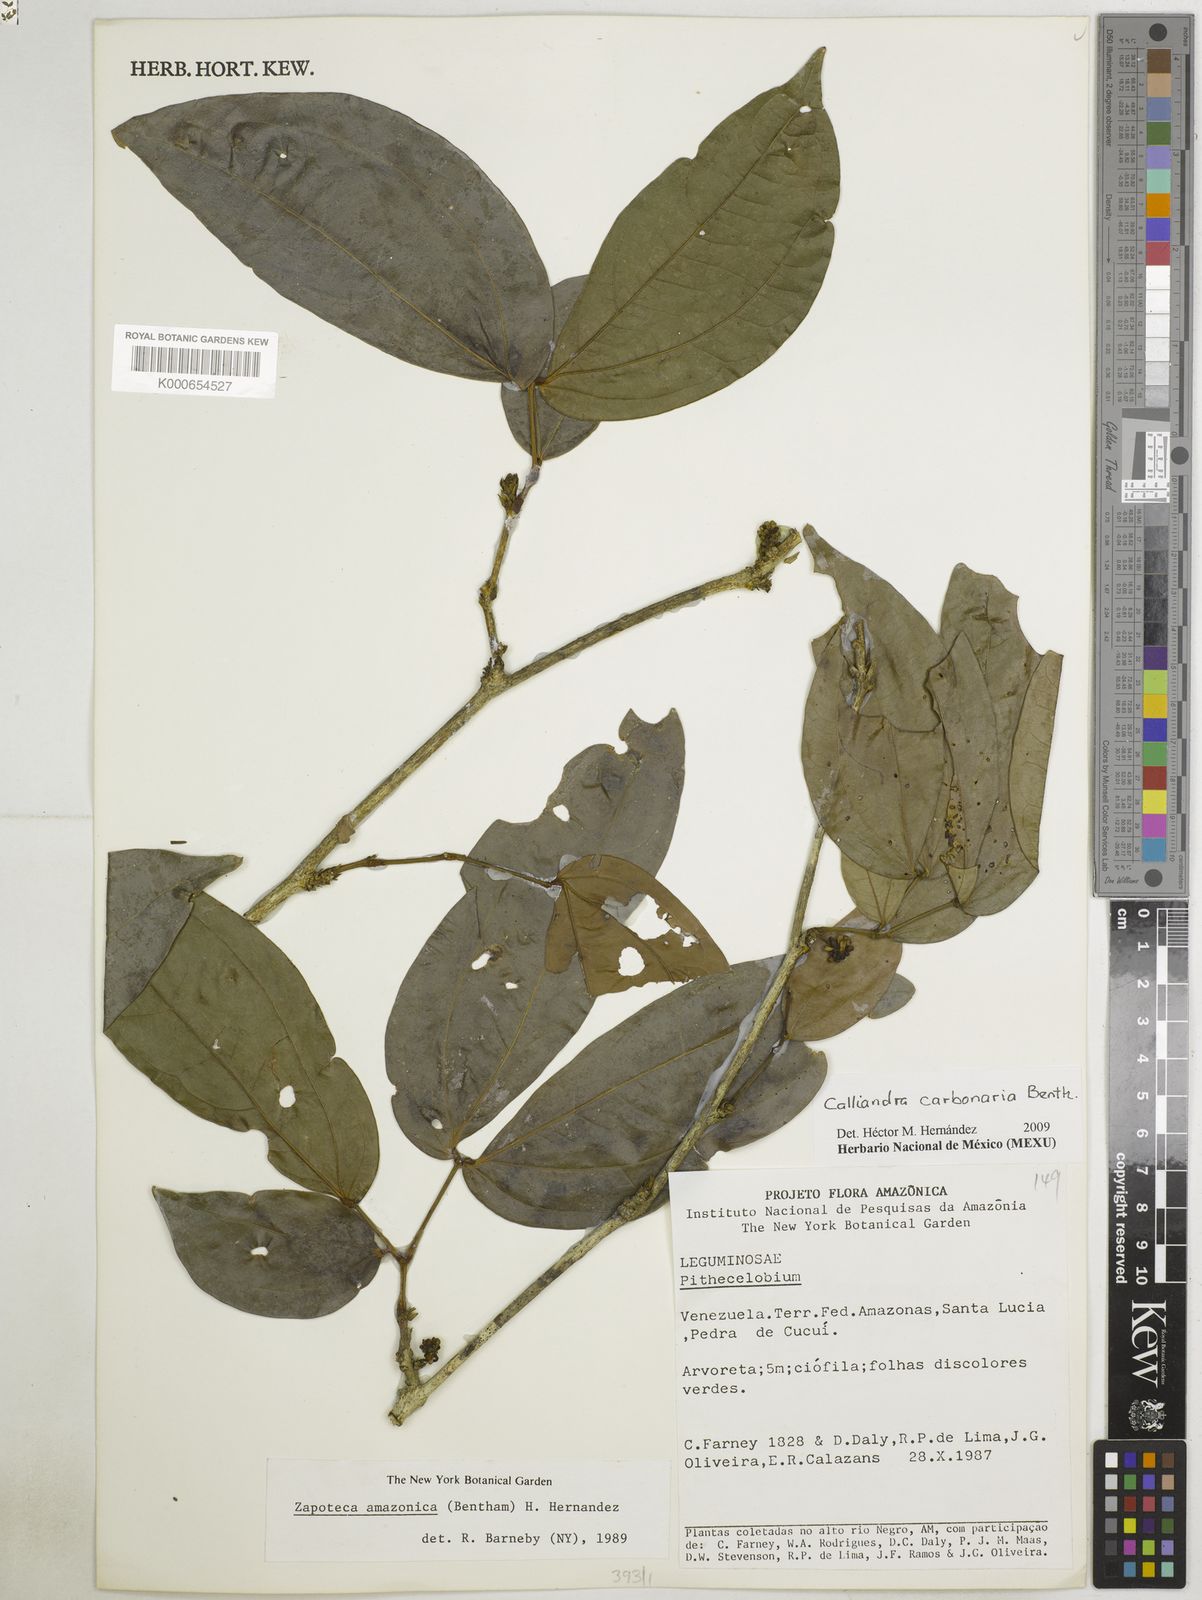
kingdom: Plantae
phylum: Tracheophyta
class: Magnoliopsida
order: Fabales
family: Fabaceae
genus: Calliandra
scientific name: Calliandra trinervia
